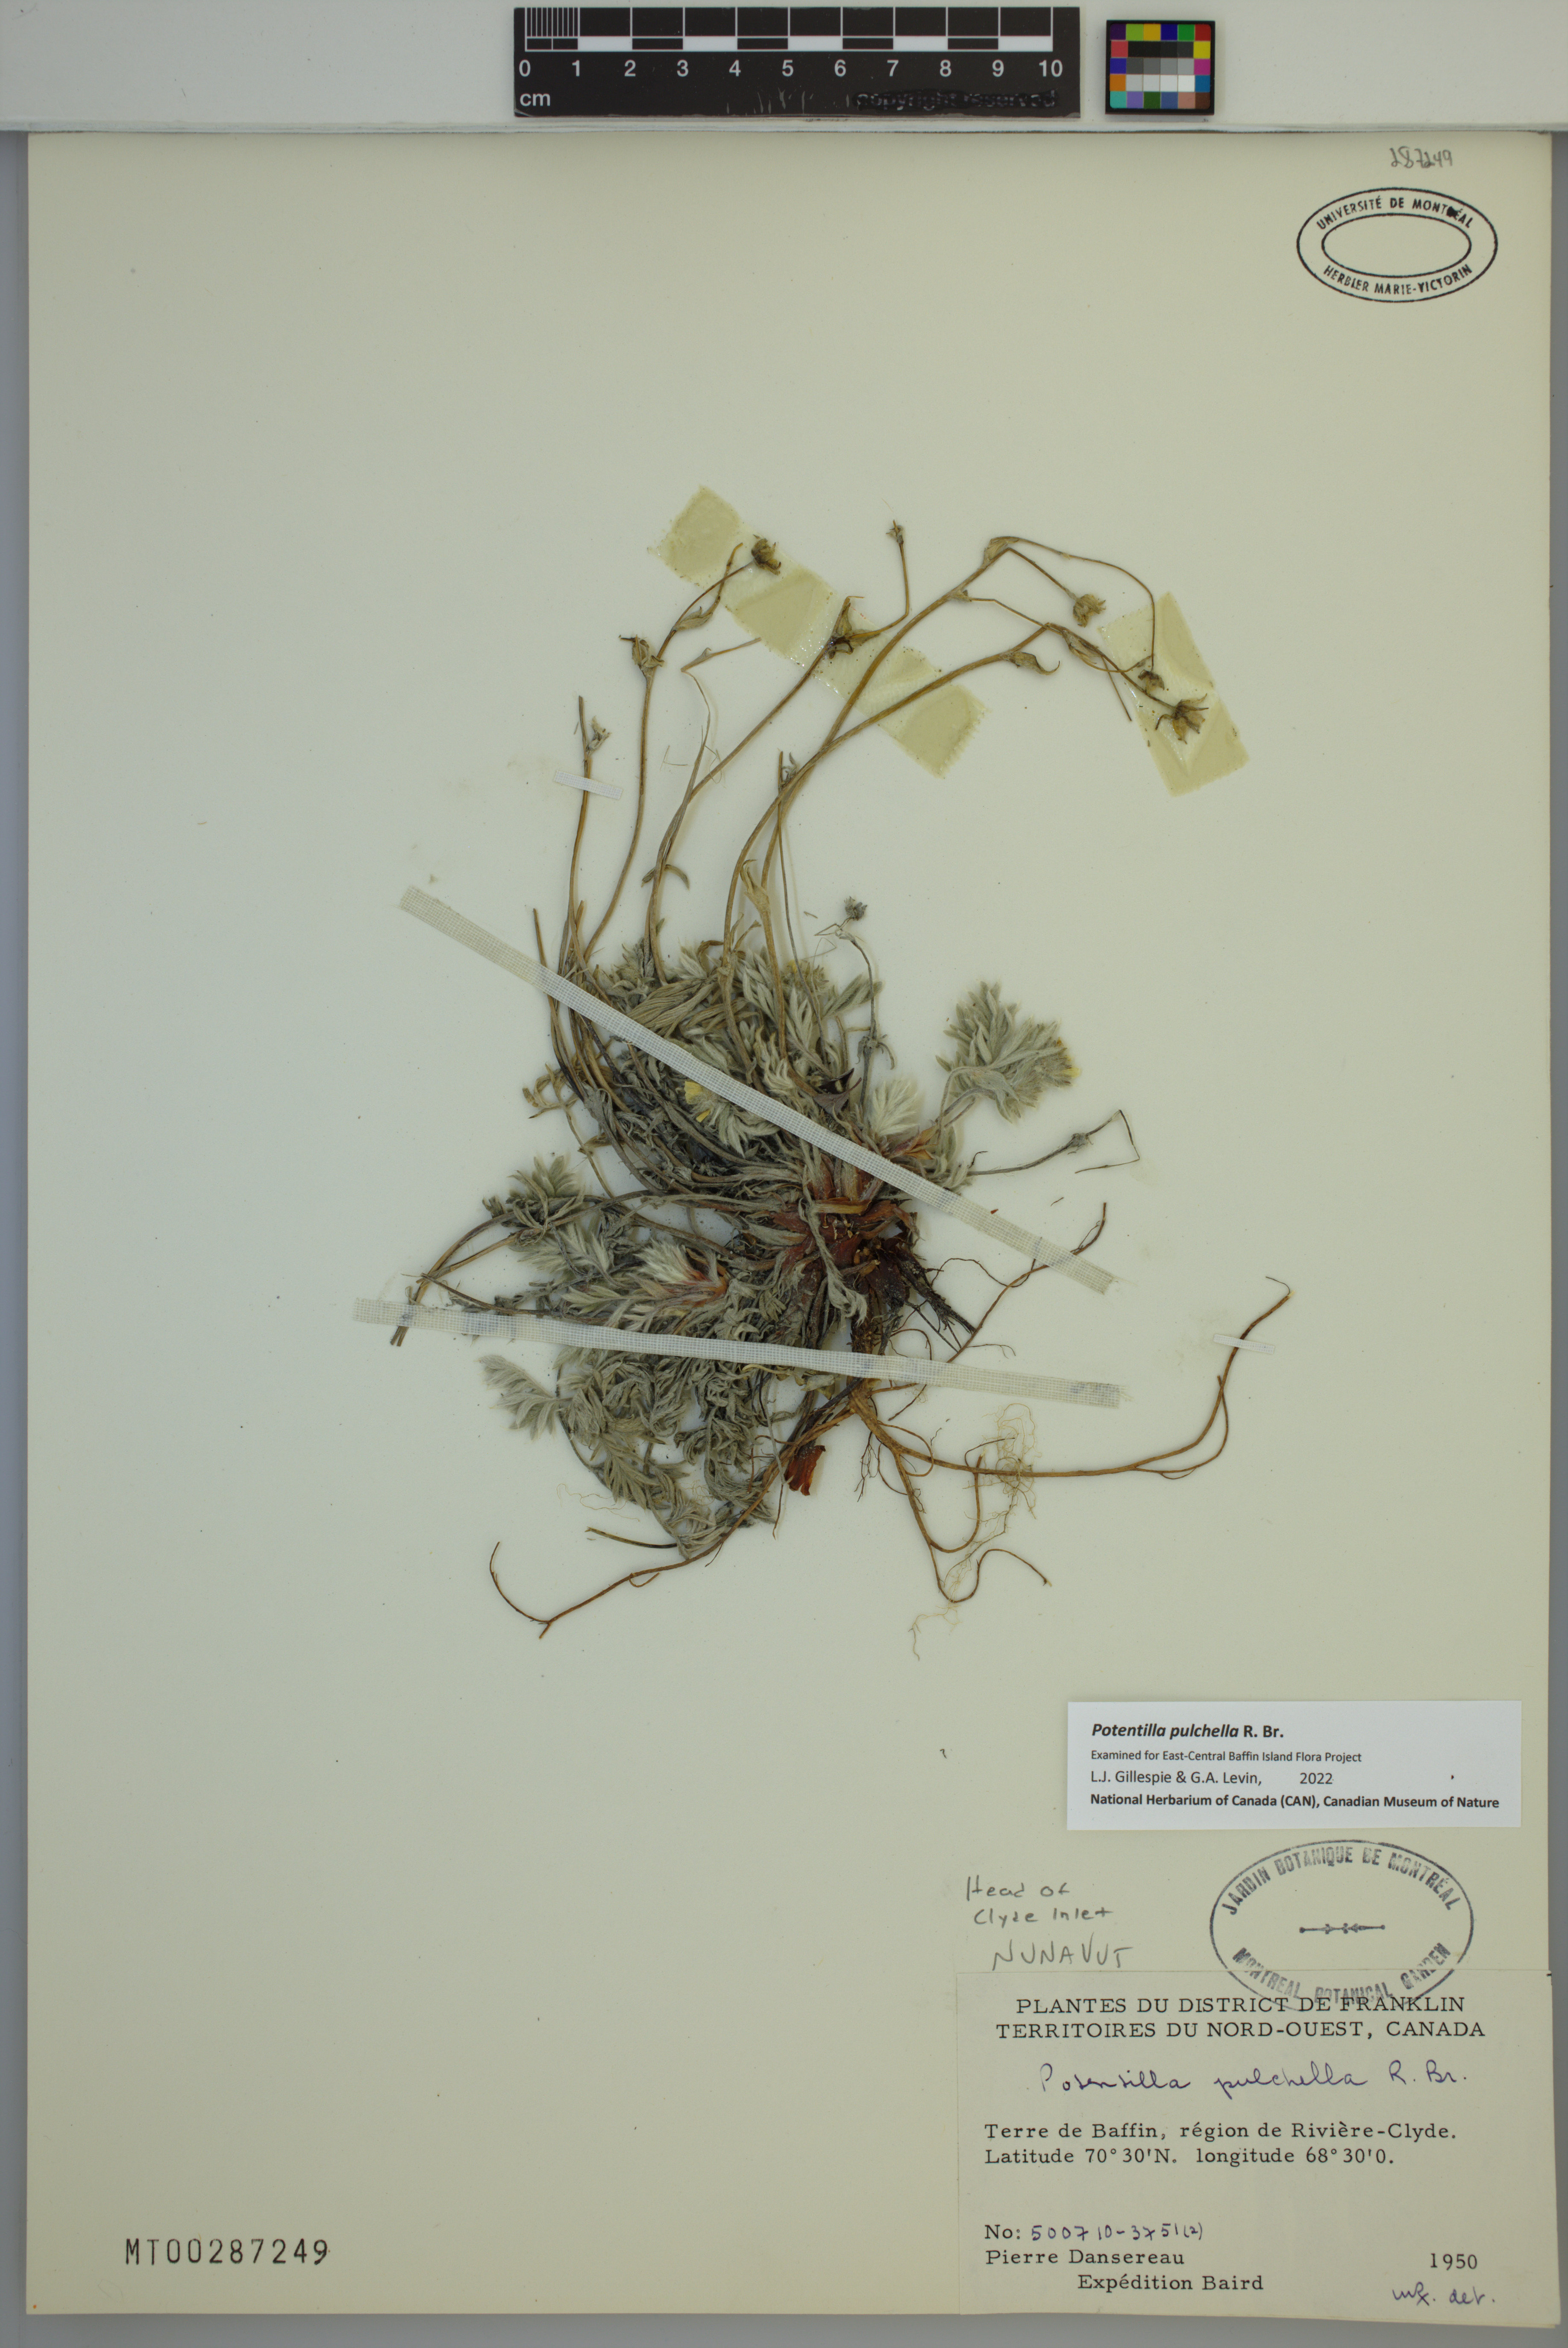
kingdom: Plantae
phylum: Tracheophyta
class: Magnoliopsida
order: Rosales
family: Rosaceae
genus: Potentilla
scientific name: Potentilla pulchella
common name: Pretty cinquefoil
